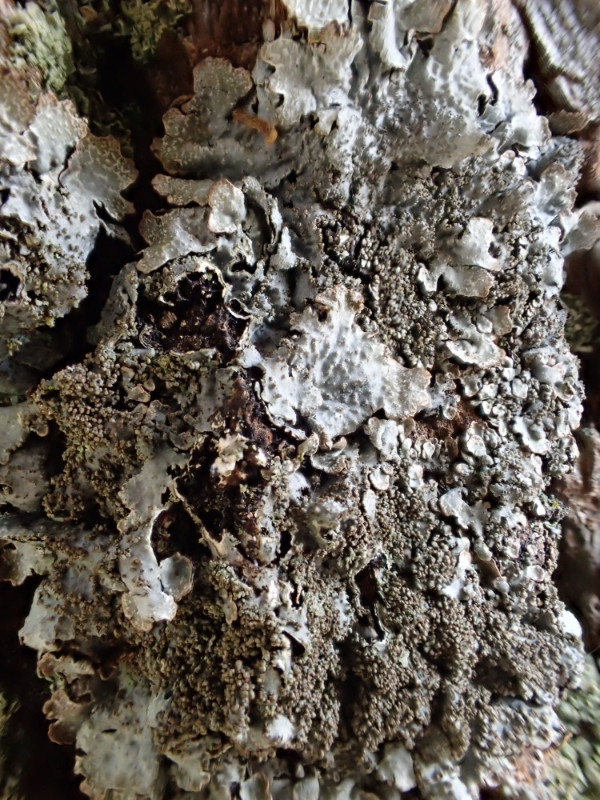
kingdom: Fungi
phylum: Ascomycota
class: Lecanoromycetes
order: Lecanorales
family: Parmeliaceae
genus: Parmelia
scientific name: Parmelia saxatilis
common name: farve-skållav
